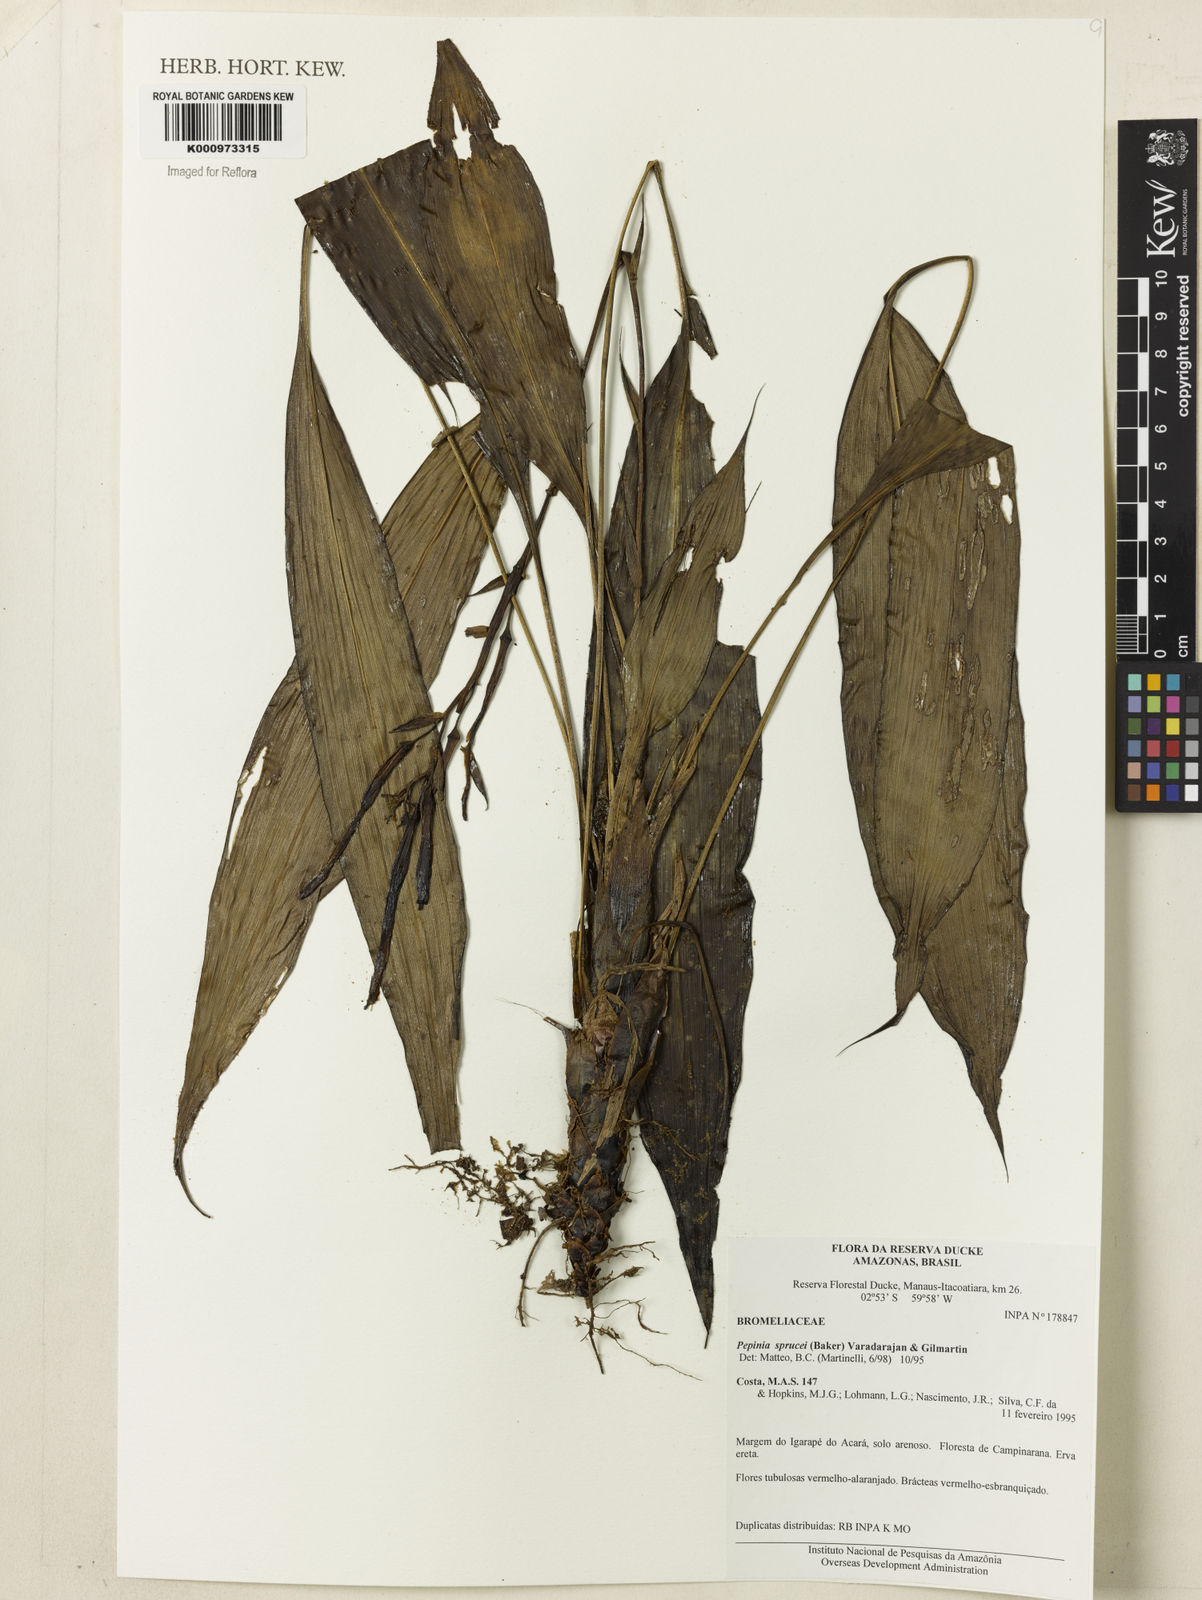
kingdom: Plantae
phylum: Tracheophyta
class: Liliopsida
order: Poales
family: Bromeliaceae
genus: Pitcairnia
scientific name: Pitcairnia sprucei
